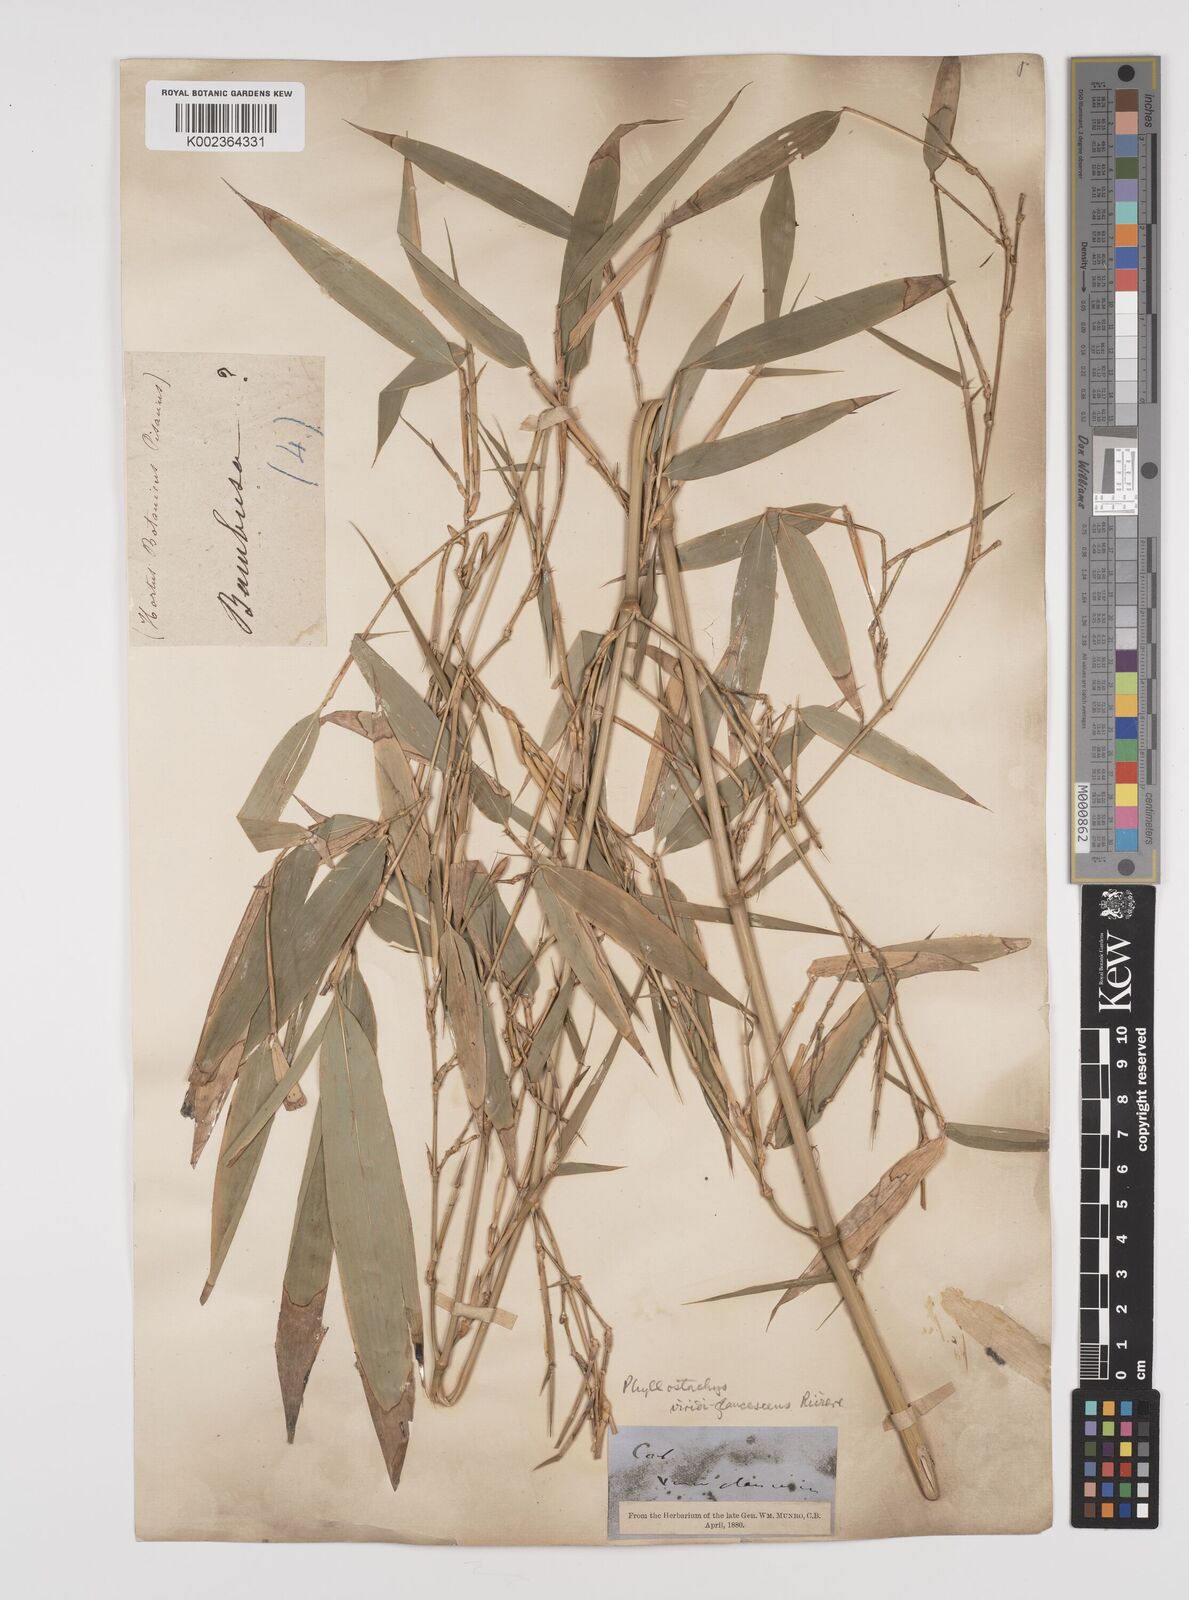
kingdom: Plantae
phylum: Tracheophyta
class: Liliopsida
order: Poales
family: Poaceae
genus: Phyllostachys
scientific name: Phyllostachys reticulata
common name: Bamboo
